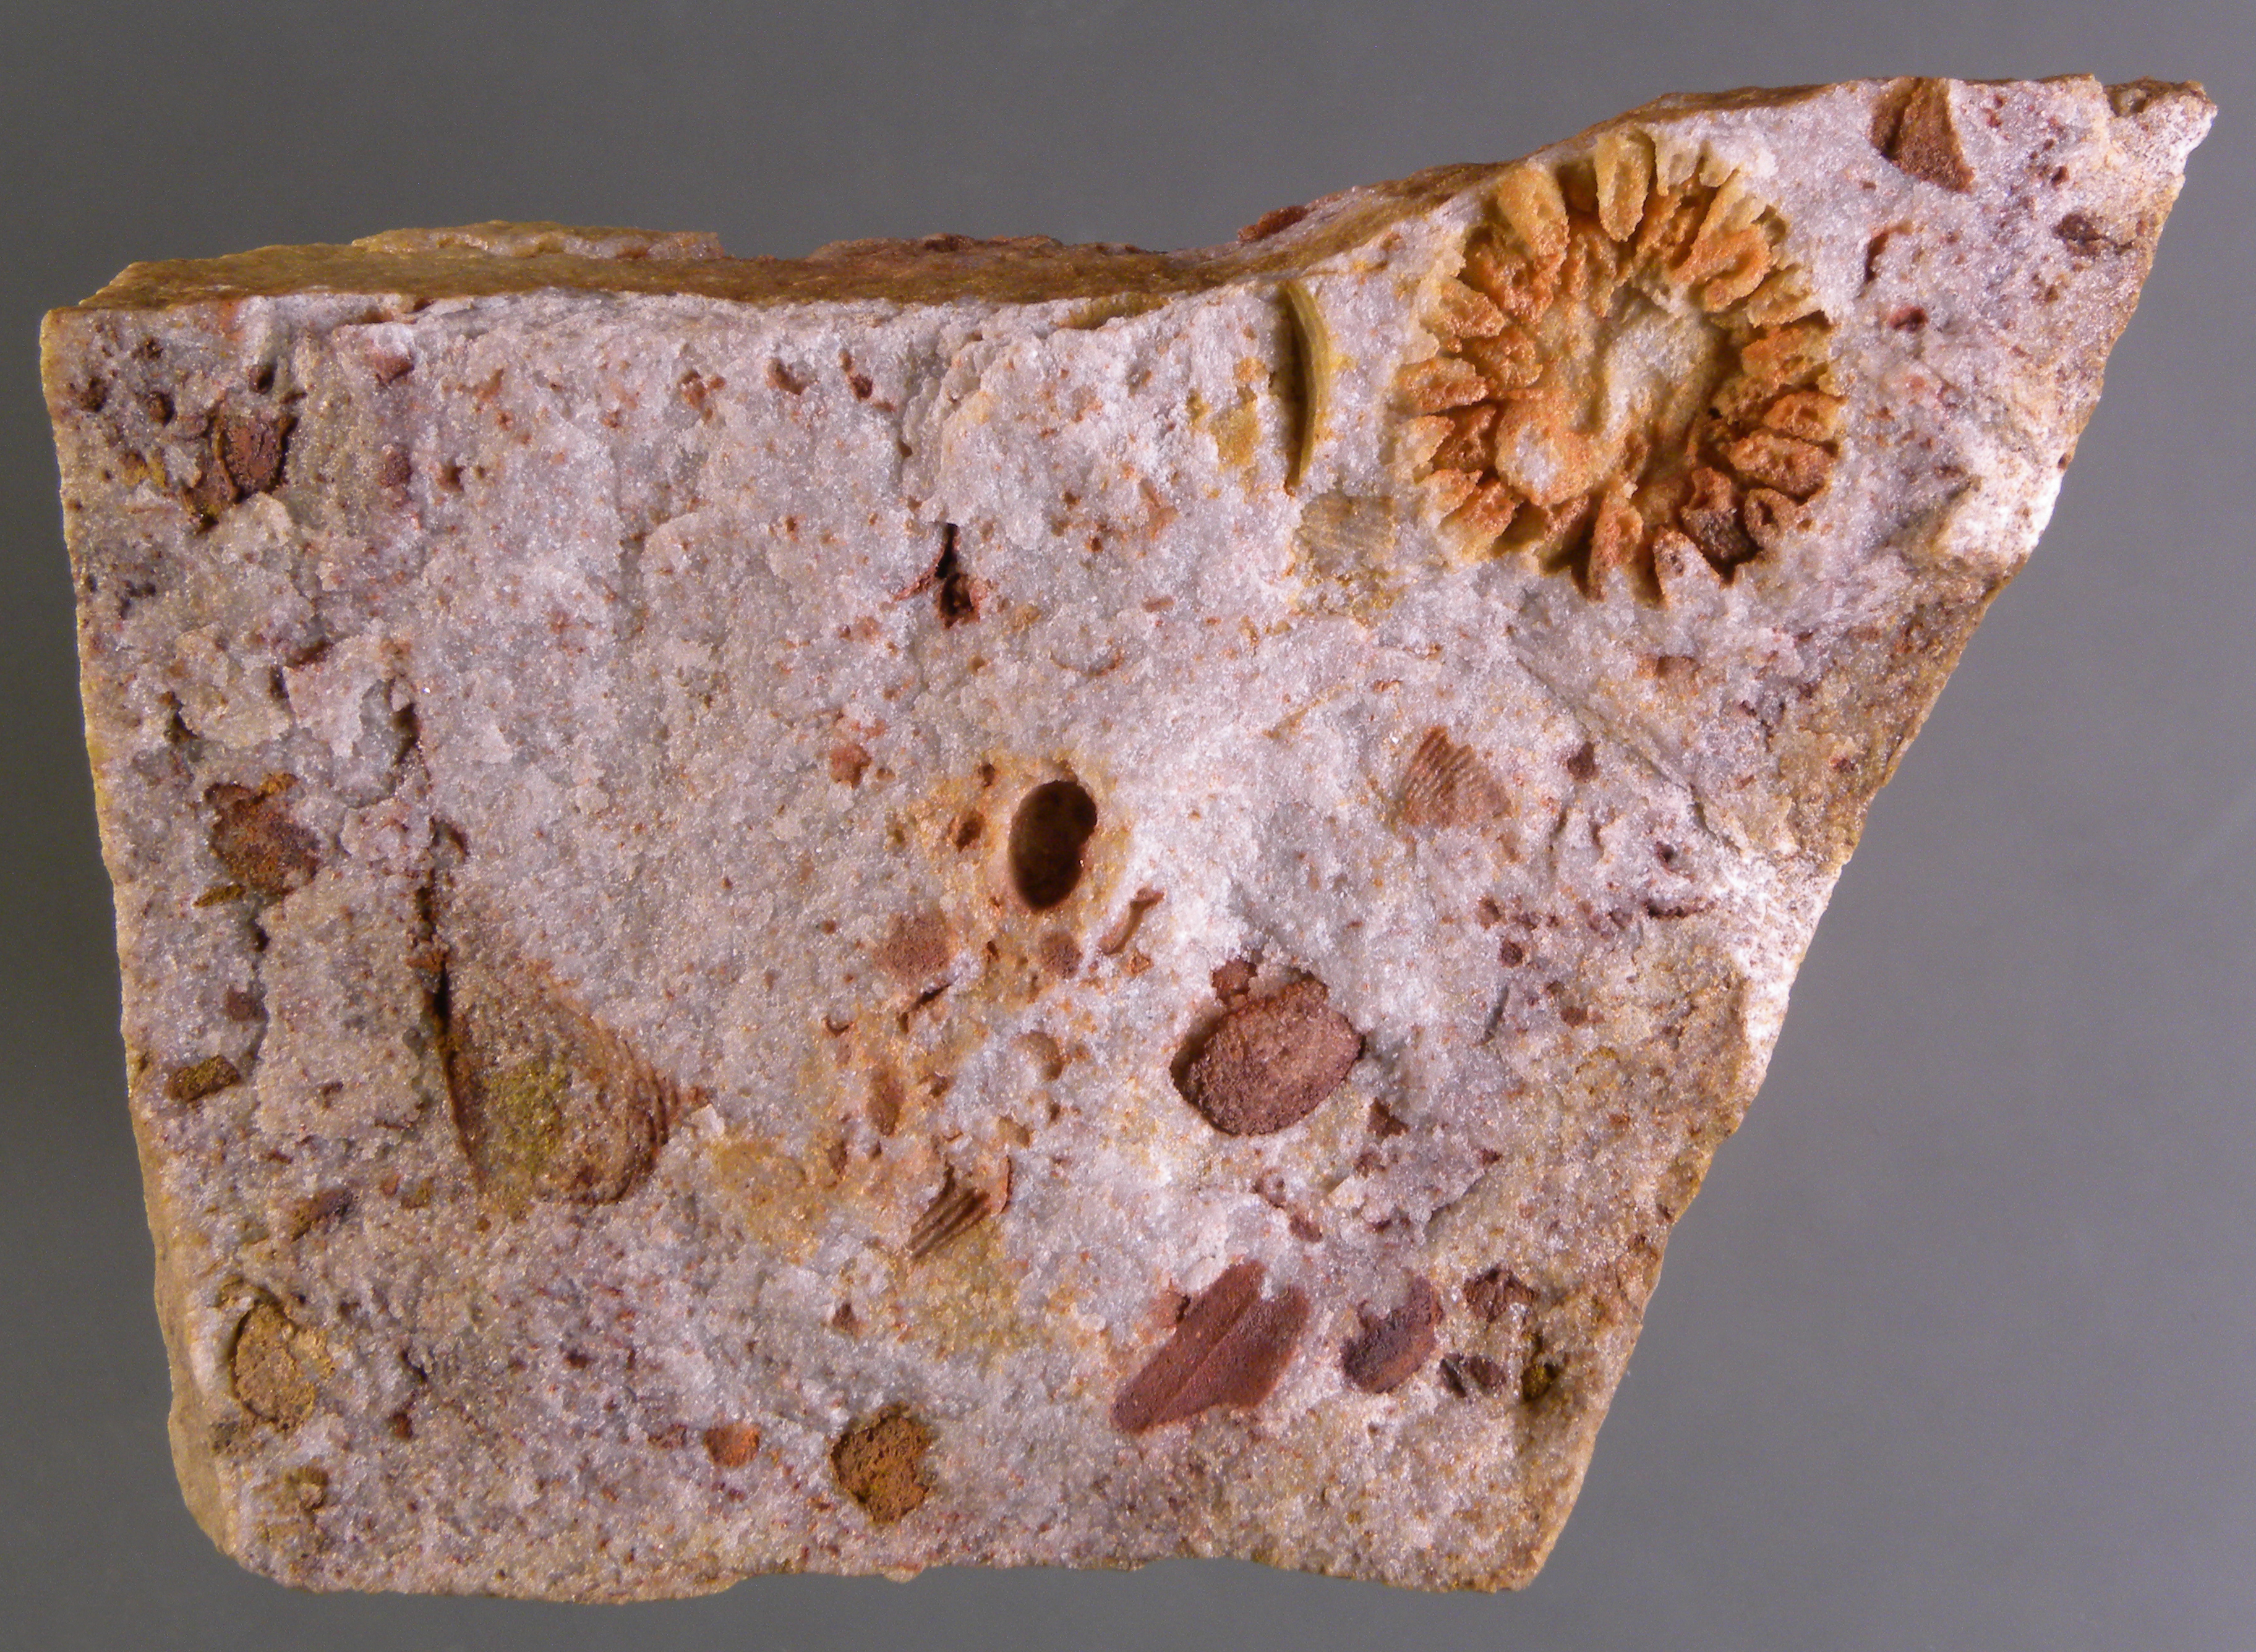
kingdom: Animalia
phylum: Mollusca
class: Bivalvia
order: Modiomorphida
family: Modiomorphidae
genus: Goniophora
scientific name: Goniophora
